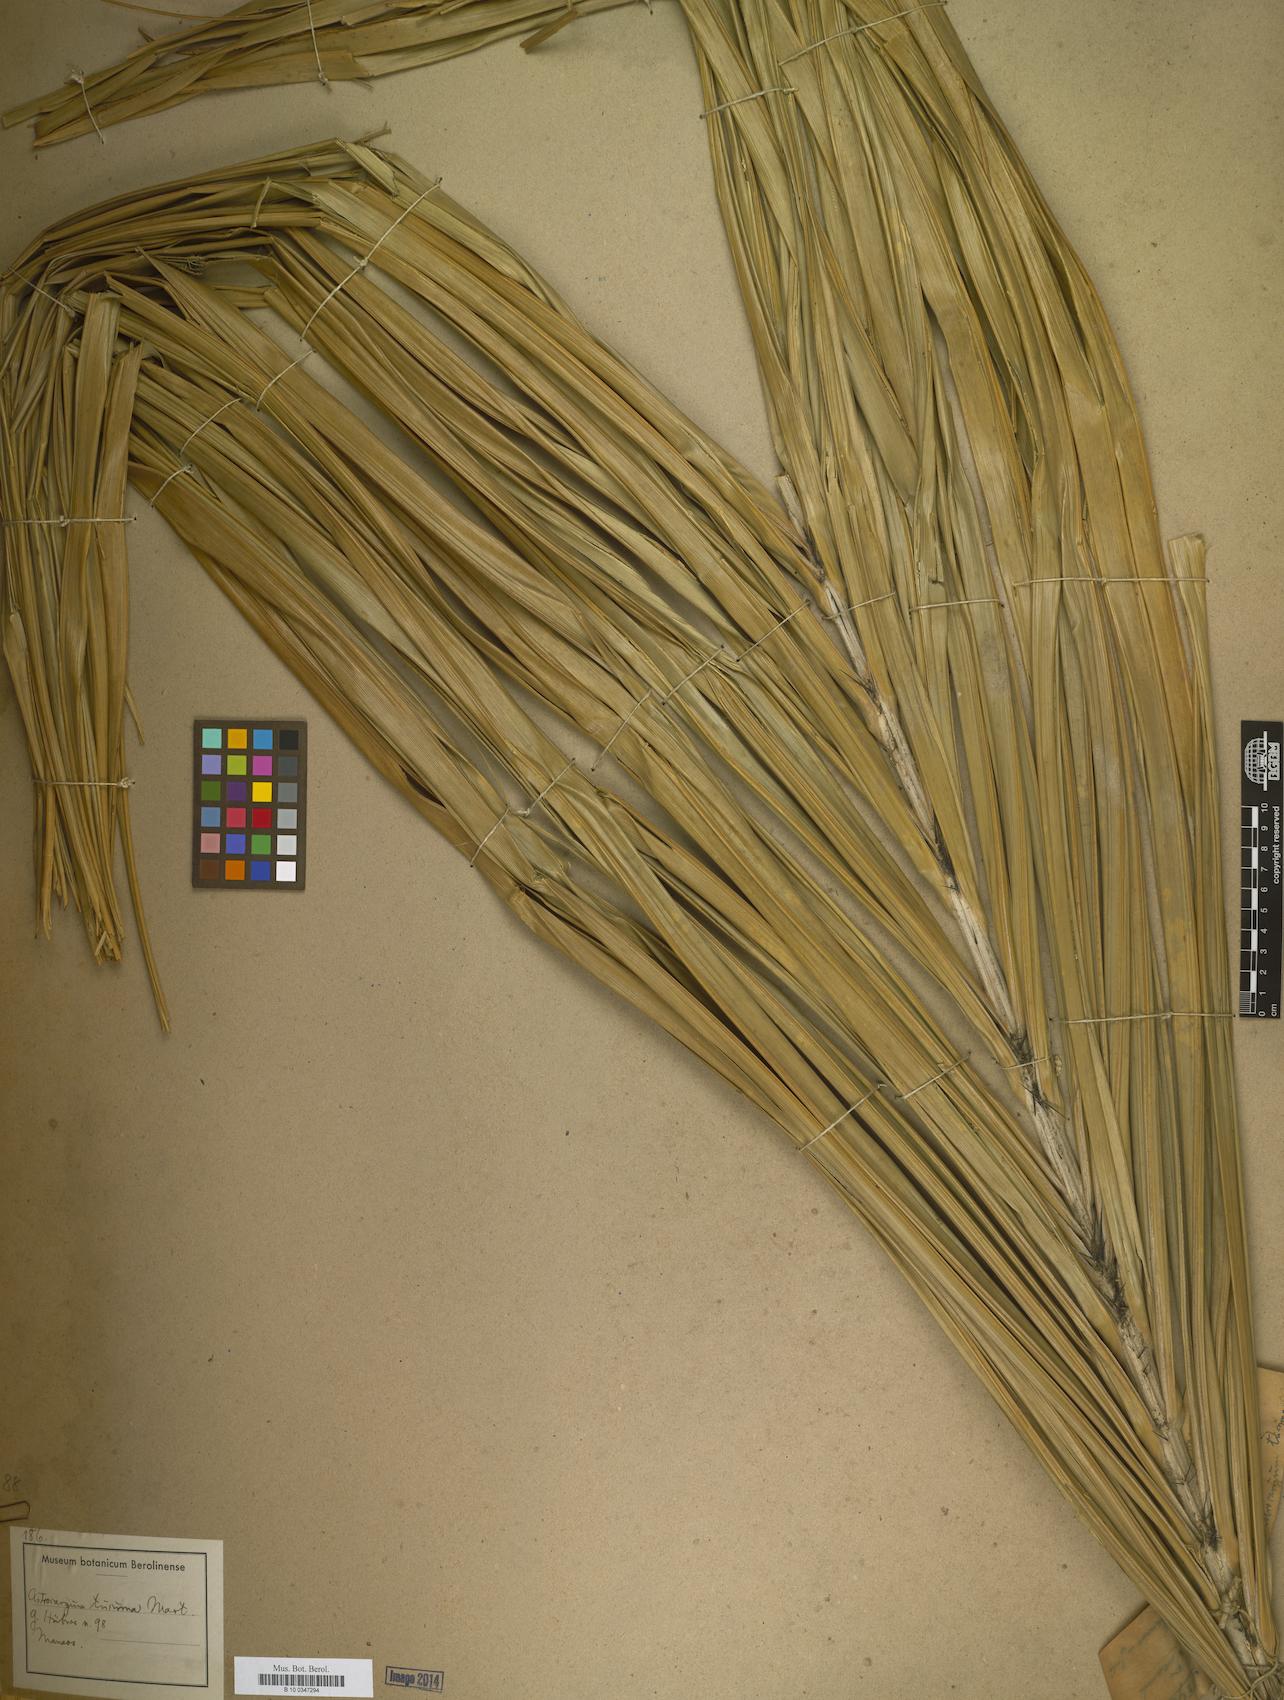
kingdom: Plantae
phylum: Tracheophyta
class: Liliopsida
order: Arecales
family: Arecaceae
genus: Astrocaryum
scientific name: Astrocaryum
